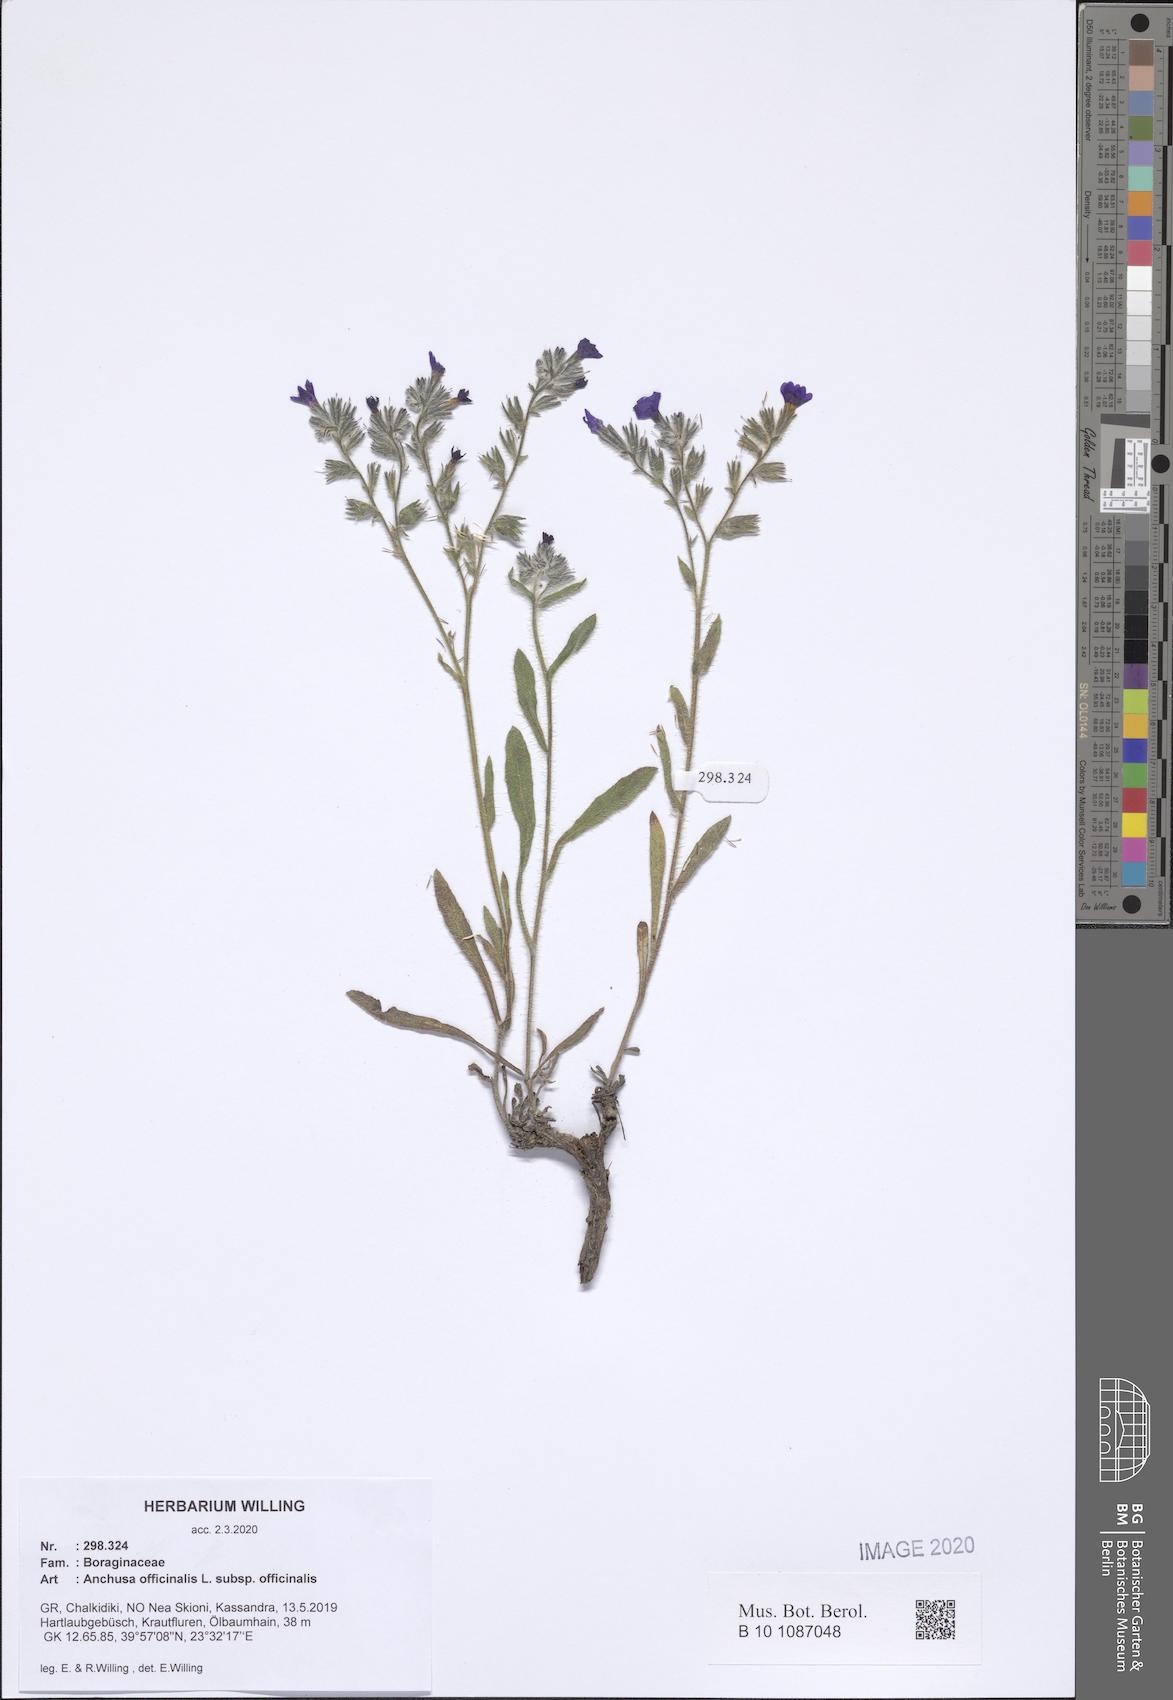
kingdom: Plantae
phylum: Tracheophyta
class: Magnoliopsida
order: Boraginales
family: Boraginaceae
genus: Anchusa
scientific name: Anchusa officinalis
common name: Alkanet
